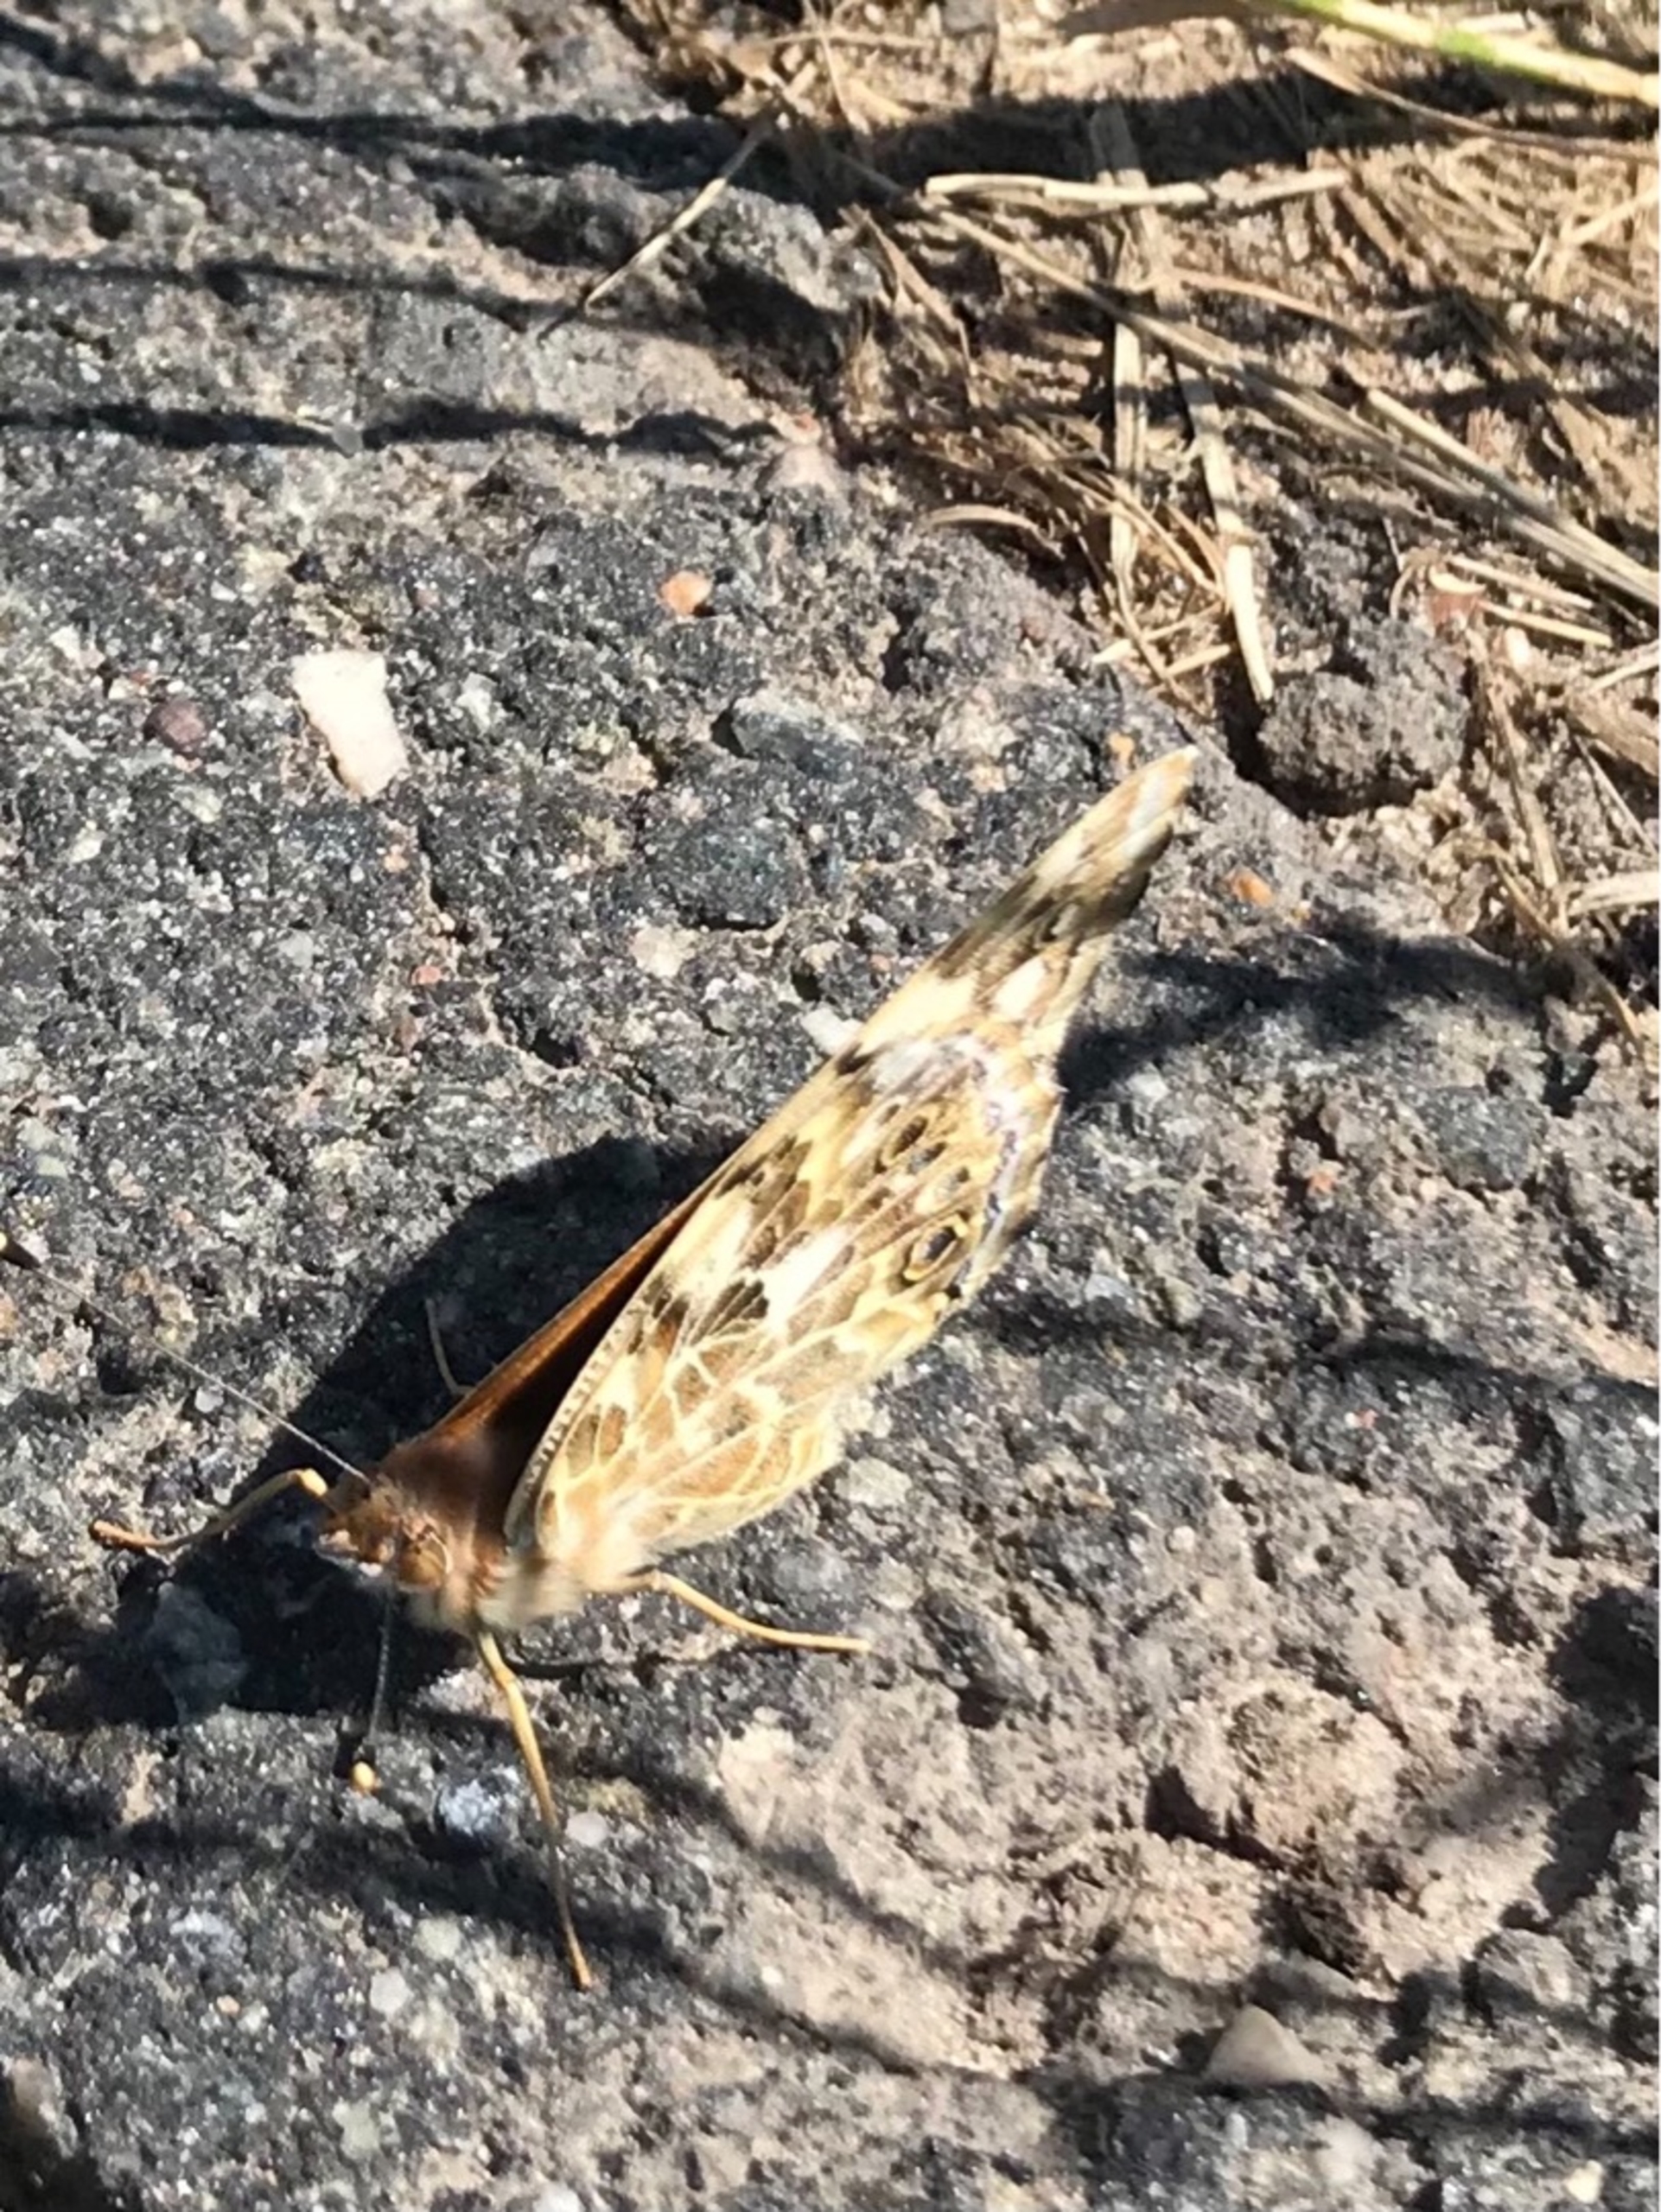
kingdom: Animalia
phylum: Arthropoda
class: Insecta
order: Lepidoptera
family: Nymphalidae
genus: Vanessa
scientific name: Vanessa cardui
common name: Tidselsommerfugl
